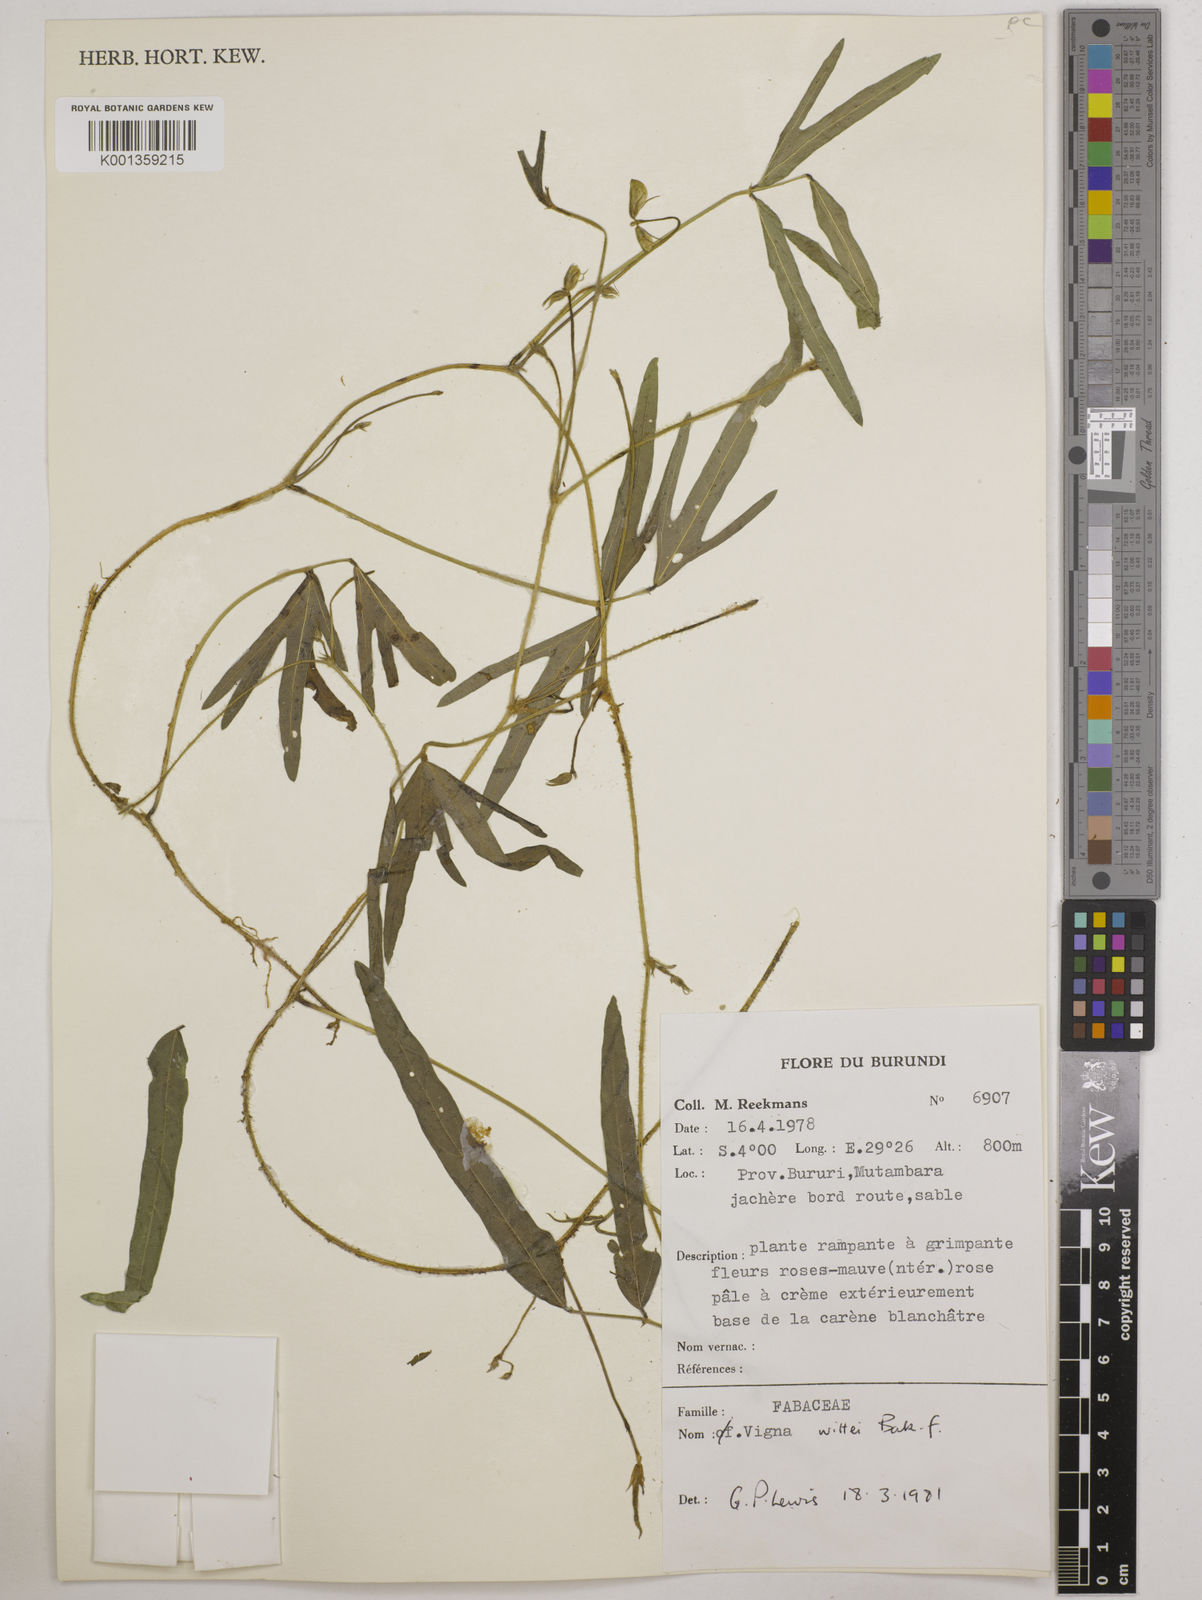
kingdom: Plantae
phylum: Tracheophyta
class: Magnoliopsida
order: Fabales
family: Fabaceae
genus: Vigna
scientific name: Vigna wittei
